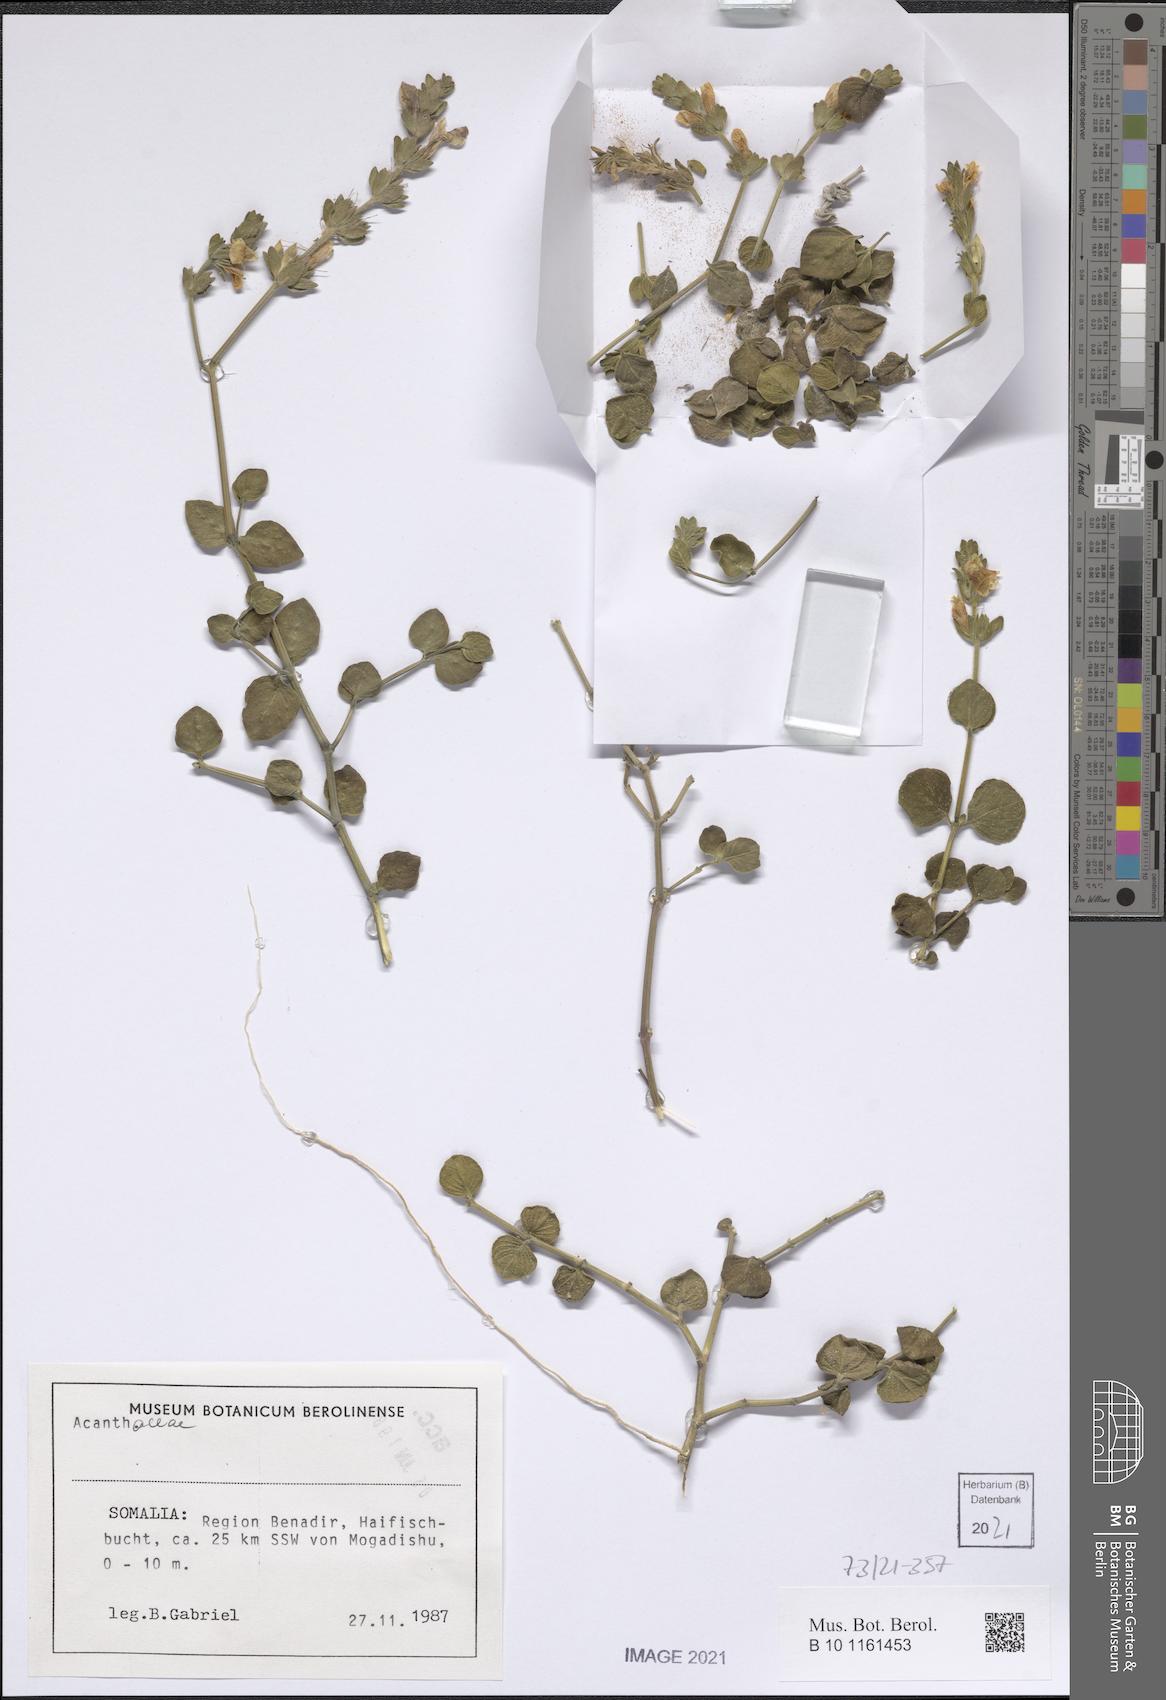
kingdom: Plantae
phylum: Tracheophyta
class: Magnoliopsida
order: Lamiales
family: Acanthaceae
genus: Justicia
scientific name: Justicia baravensis
